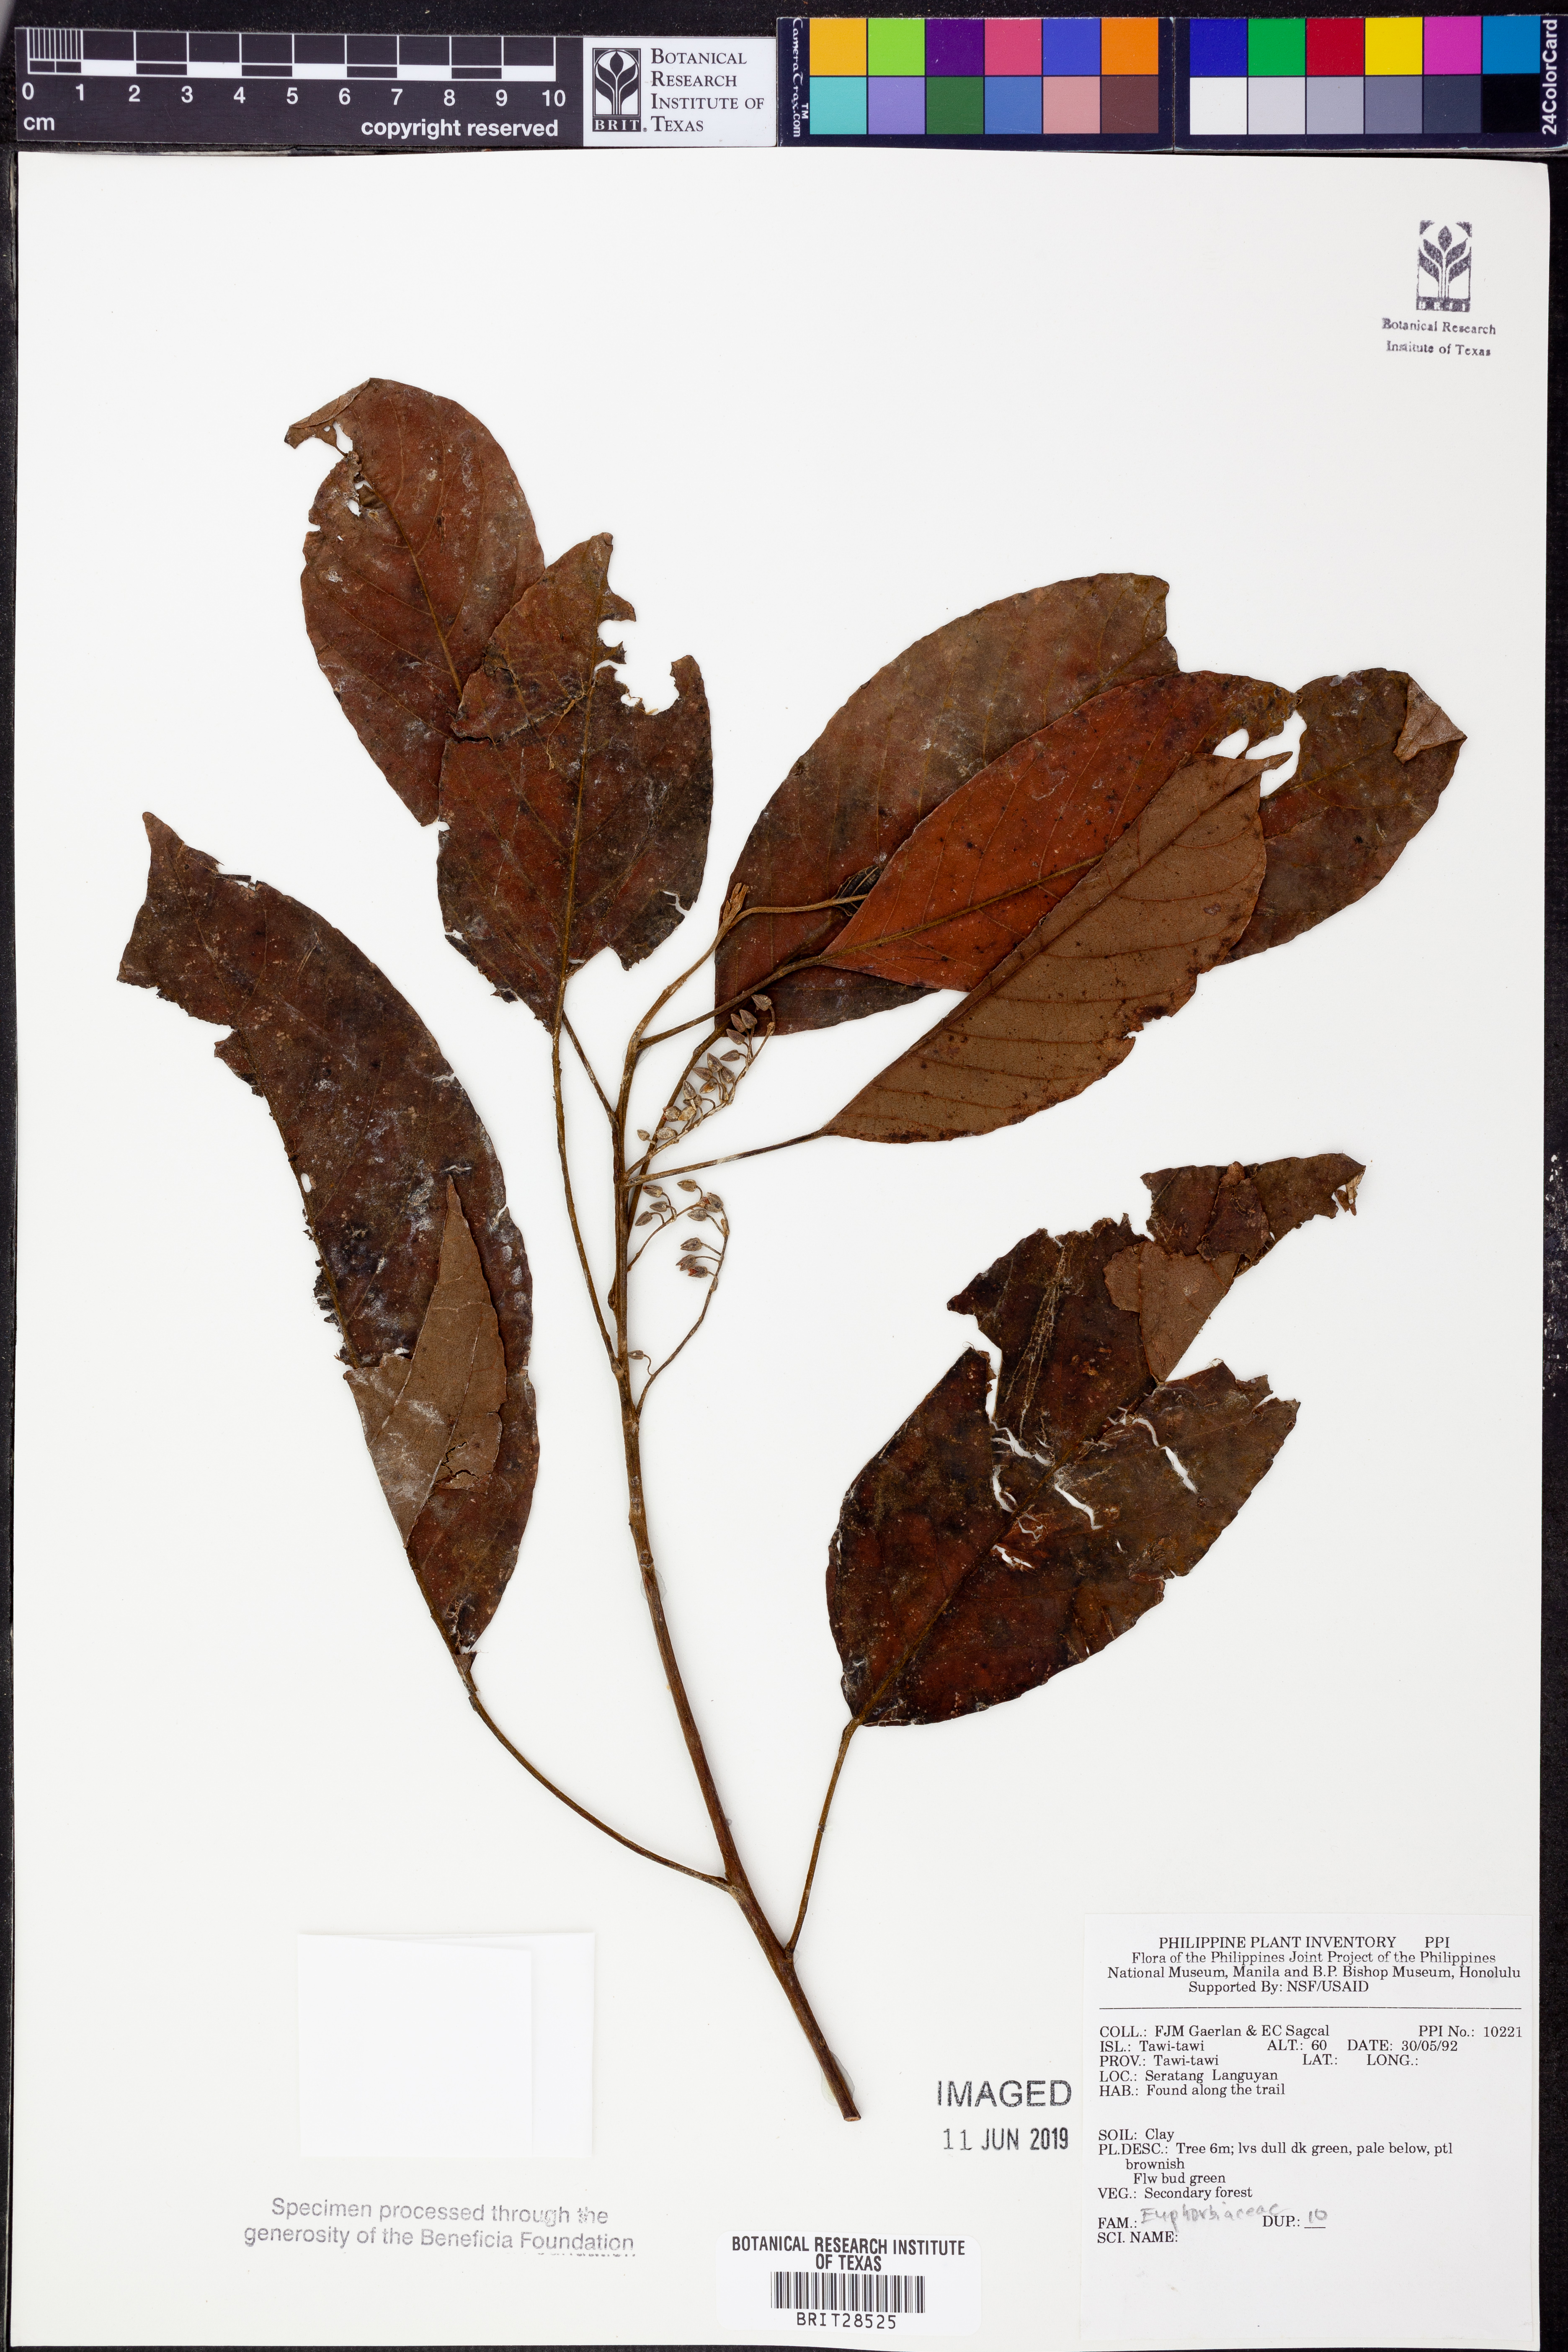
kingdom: Plantae
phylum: Tracheophyta
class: Magnoliopsida
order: Malpighiales
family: Euphorbiaceae
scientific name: Euphorbiaceae
